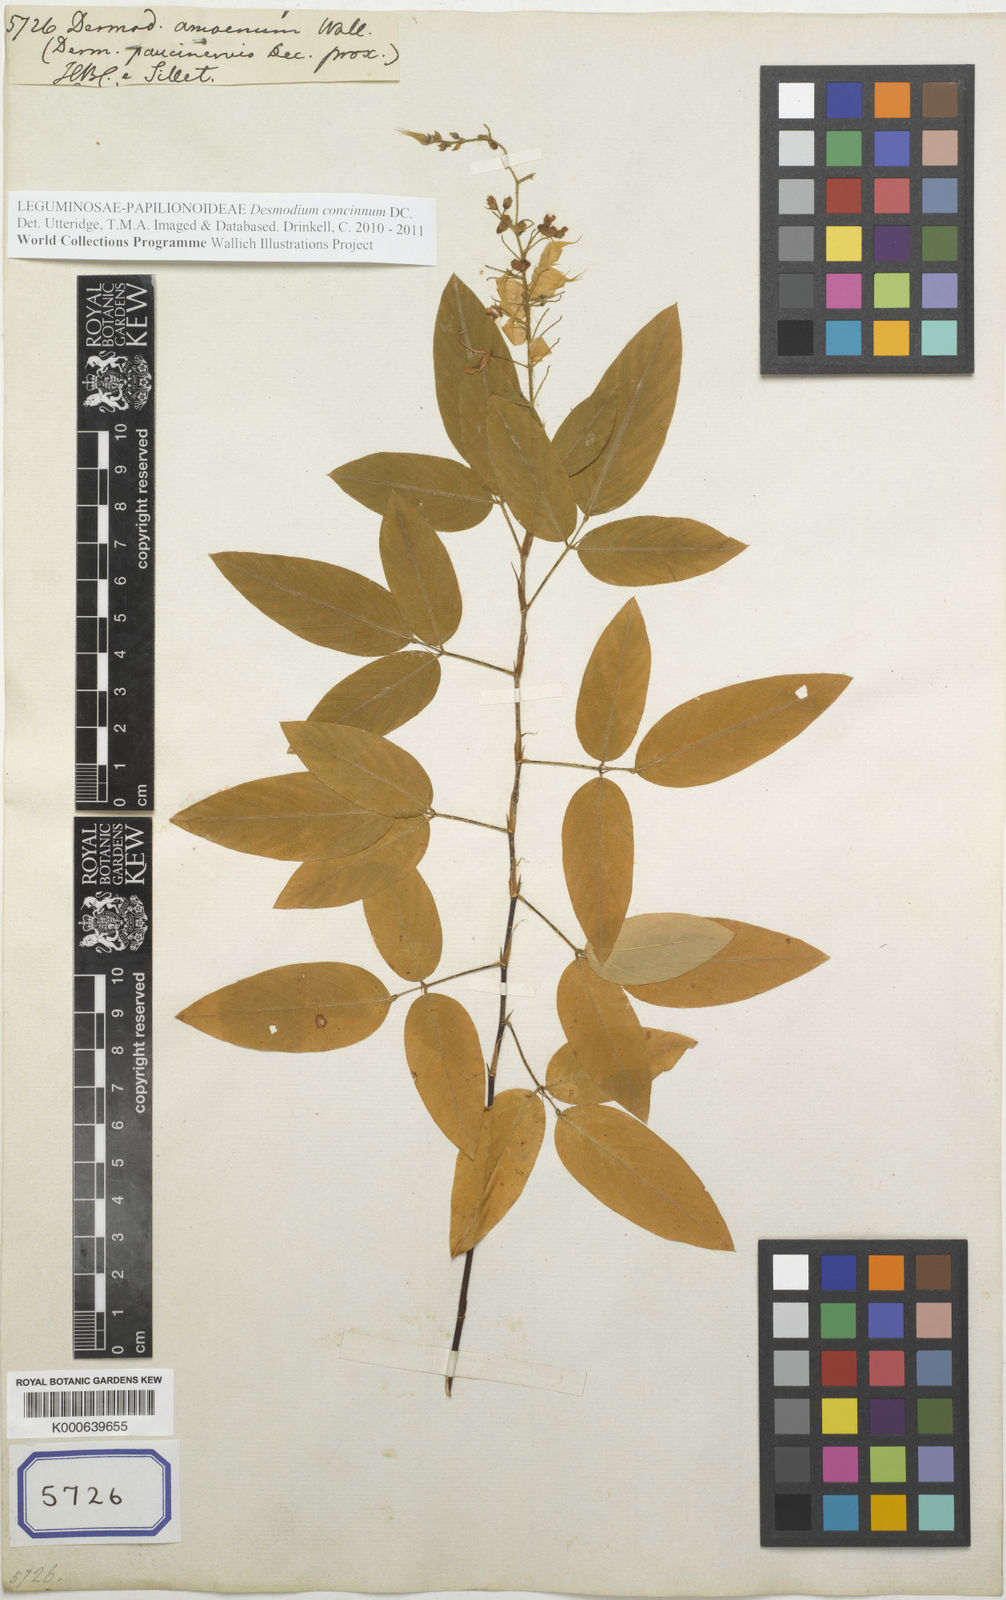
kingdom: Plantae
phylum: Tracheophyta
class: Magnoliopsida
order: Fabales
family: Fabaceae
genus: Desmodium
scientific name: Desmodium
